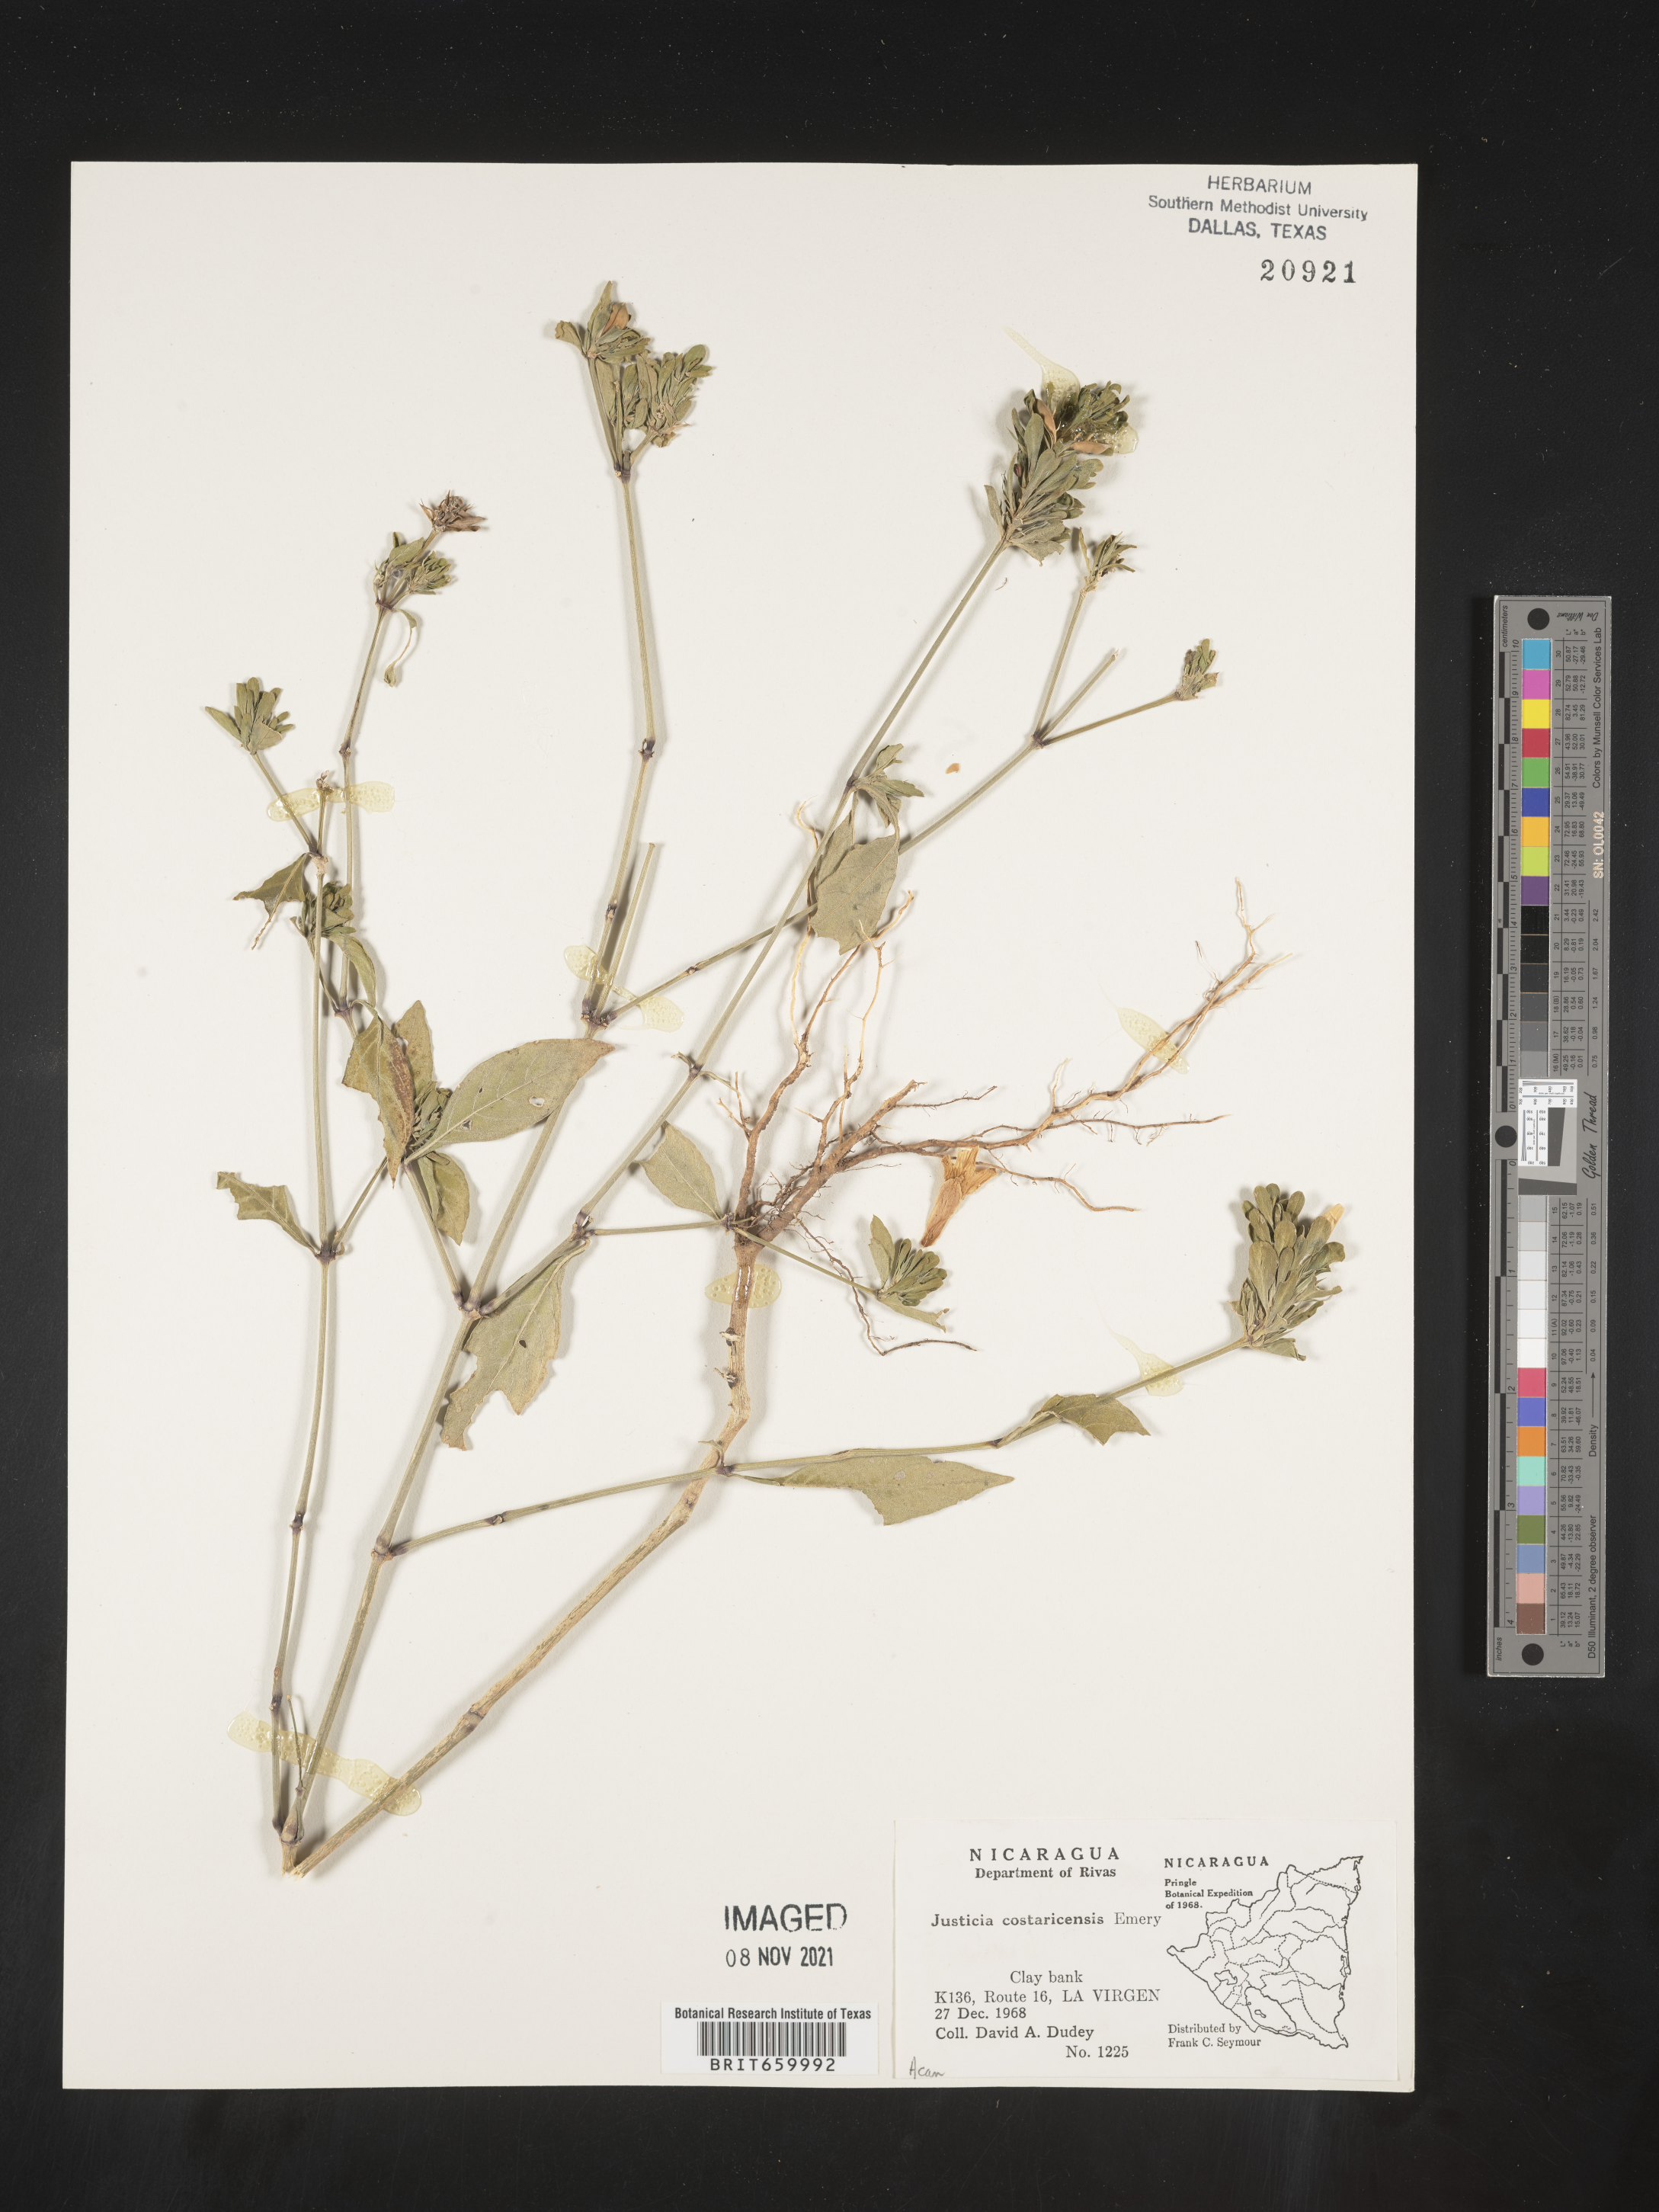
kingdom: Plantae
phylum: Tracheophyta
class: Magnoliopsida
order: Lamiales
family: Acanthaceae
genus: Justicia
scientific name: Justicia
